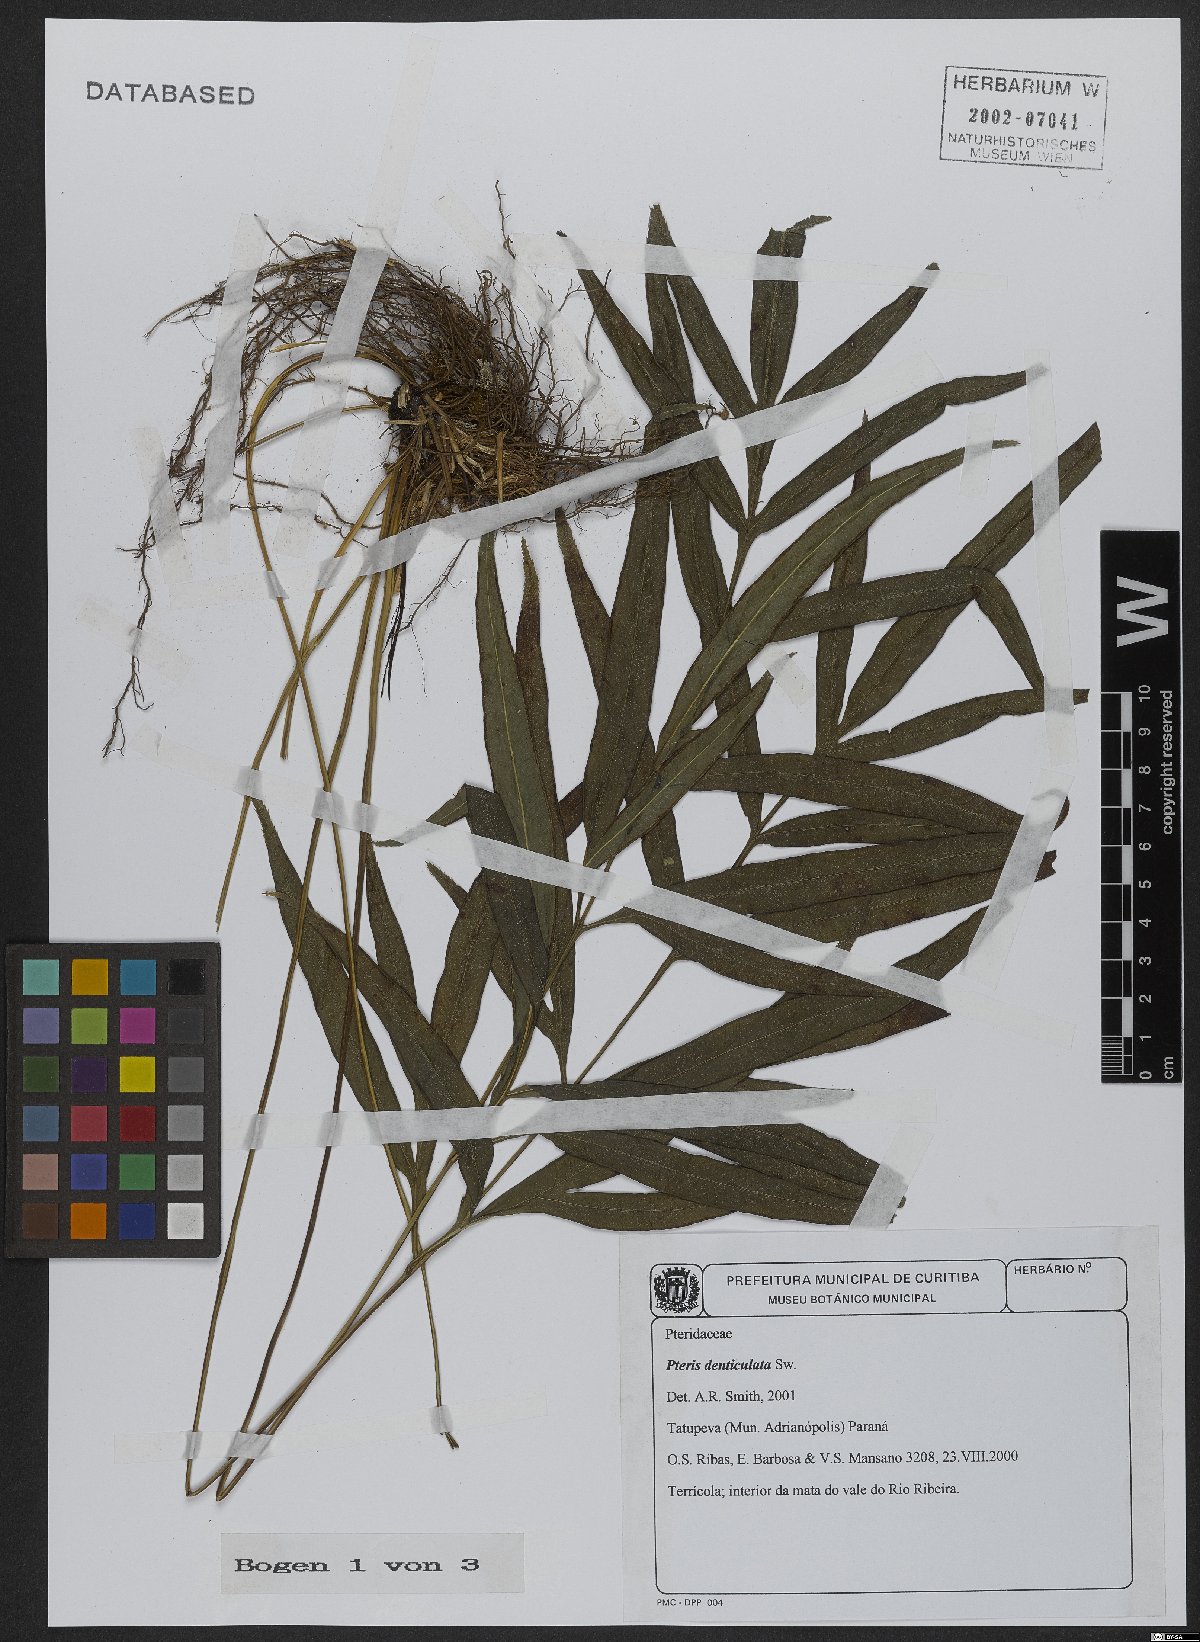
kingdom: Plantae
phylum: Tracheophyta
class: Polypodiopsida
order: Polypodiales
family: Pteridaceae
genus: Pteris
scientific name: Pteris denticulata
